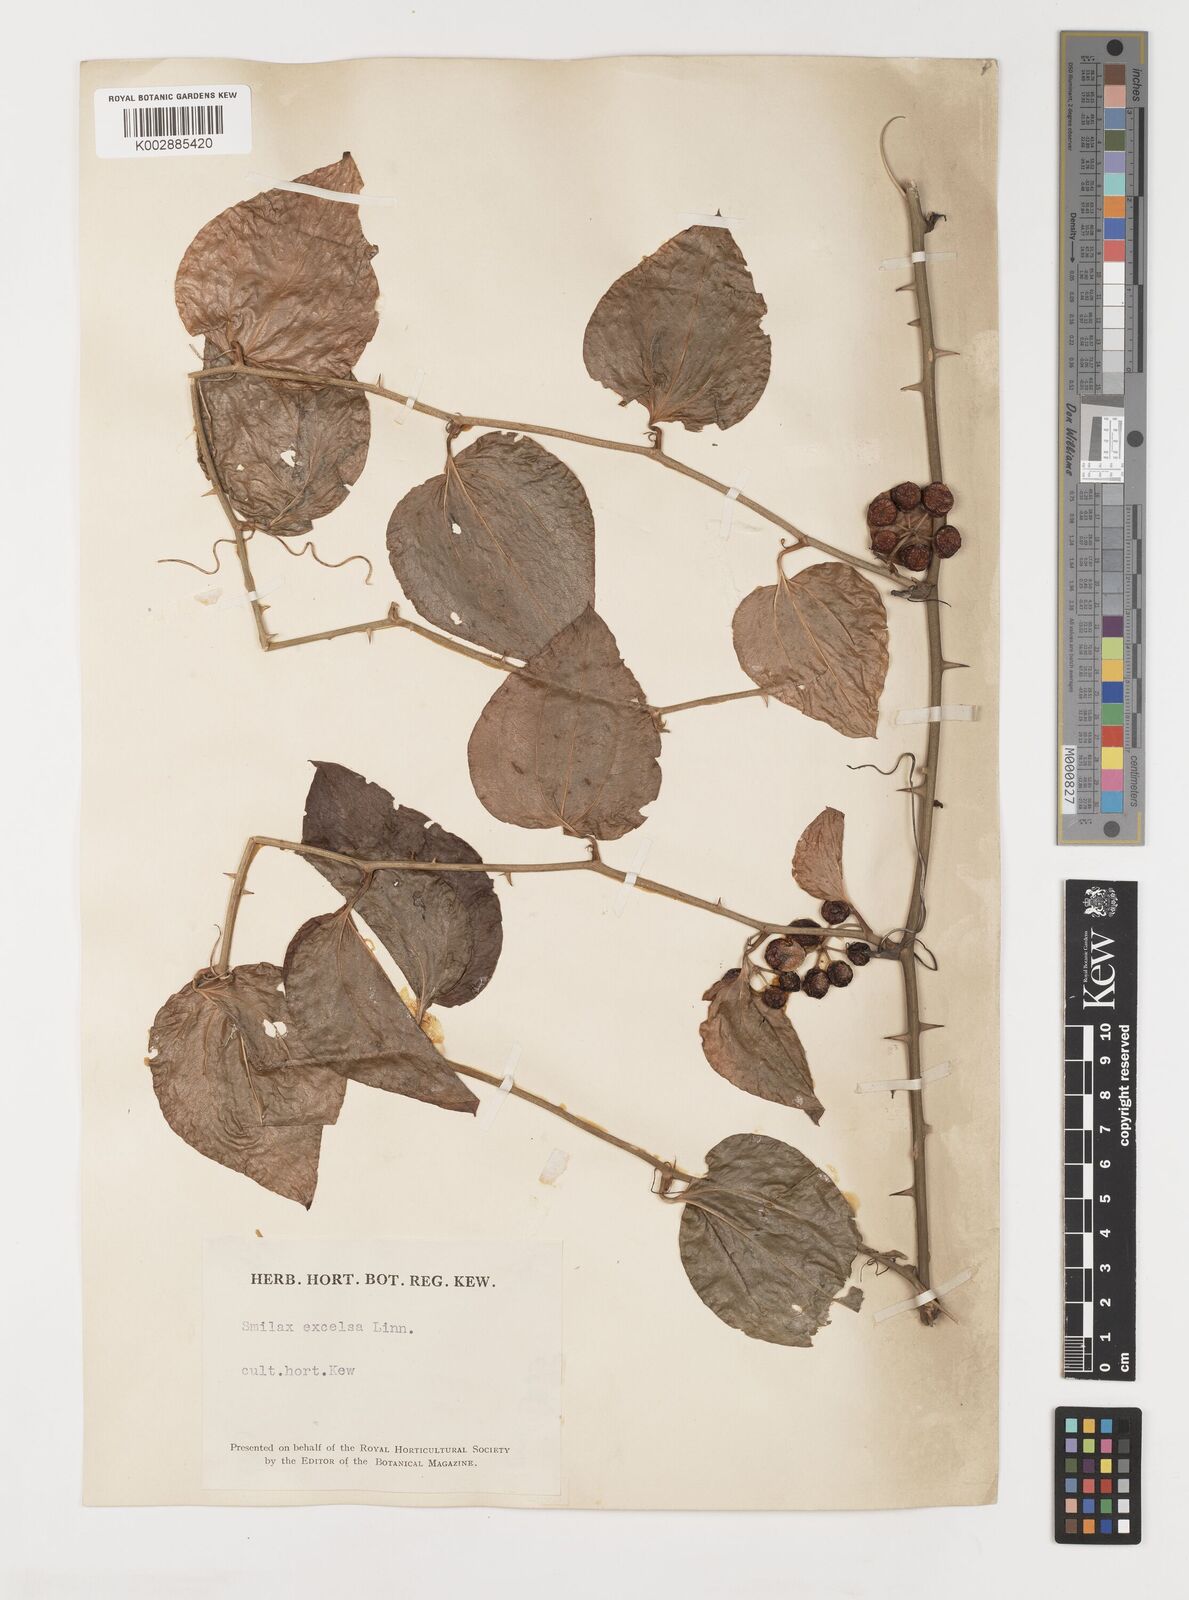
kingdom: Plantae
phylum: Tracheophyta
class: Liliopsida
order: Liliales
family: Smilacaceae
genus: Smilax
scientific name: Smilax excelsa
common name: Larger smilax
